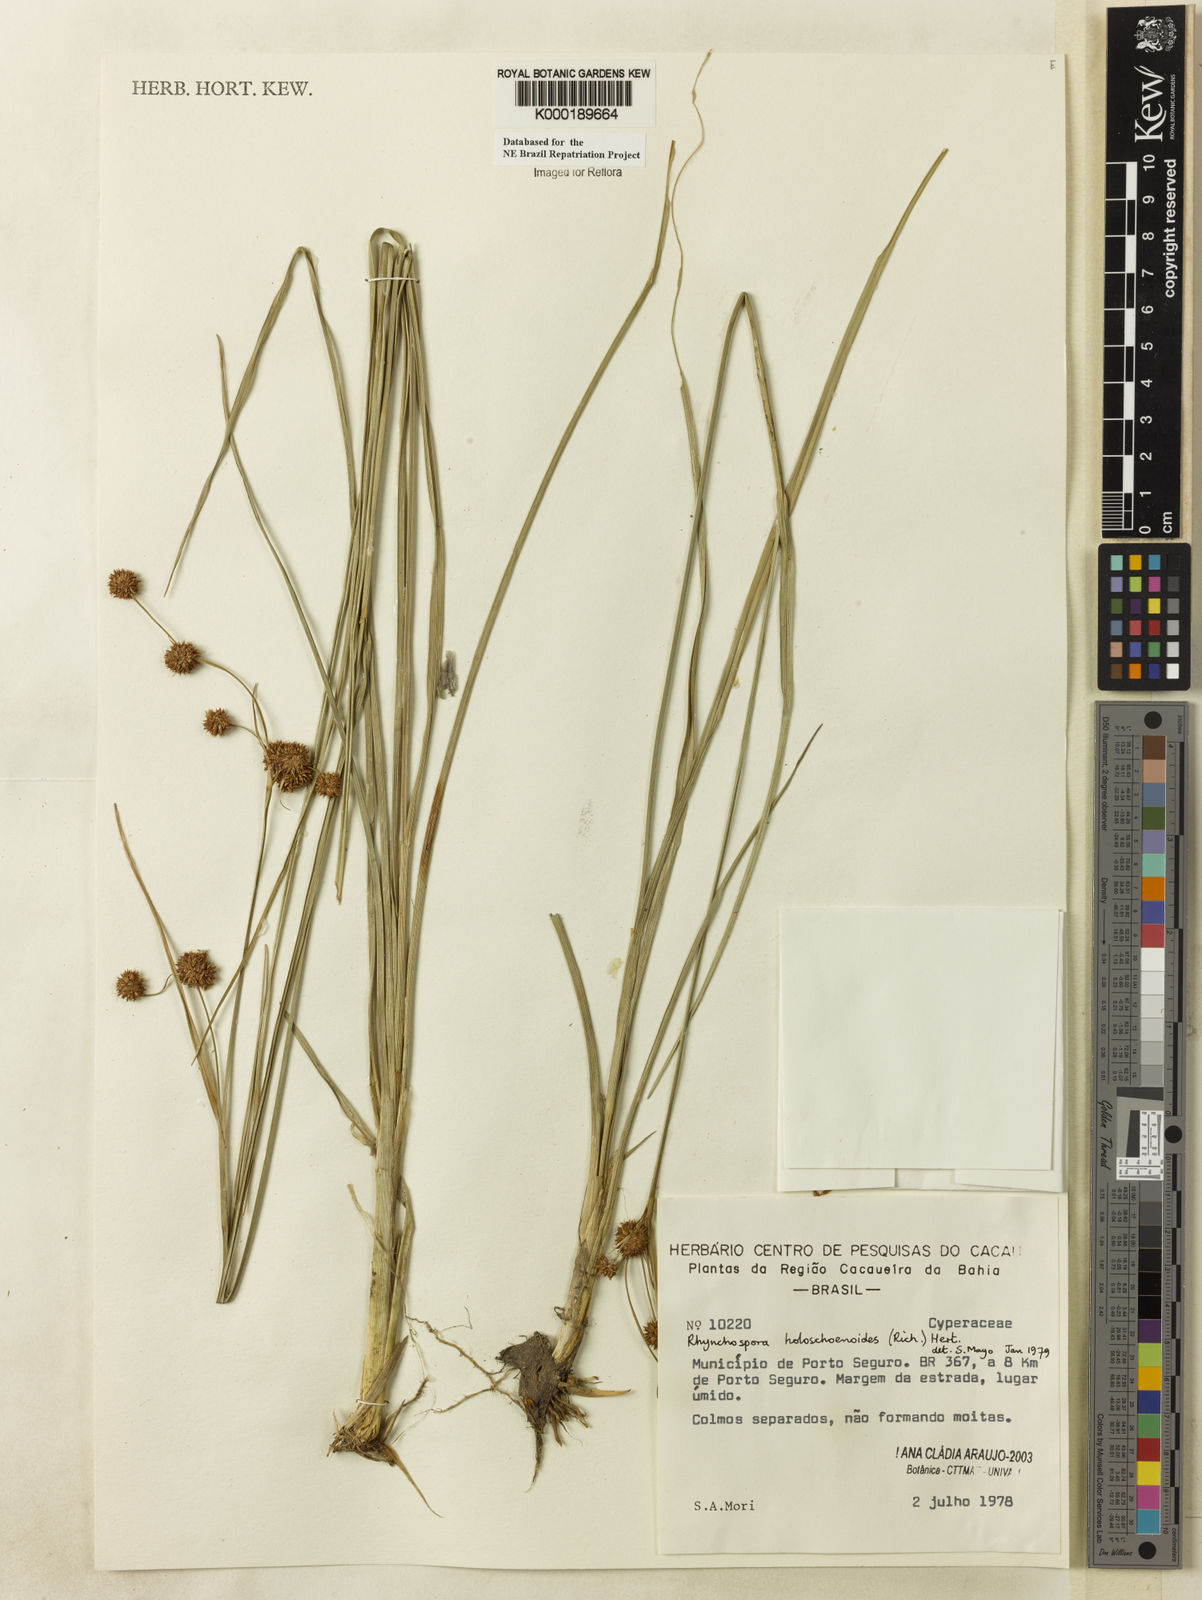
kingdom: Plantae
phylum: Tracheophyta
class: Liliopsida
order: Poales
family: Cyperaceae
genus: Rhynchospora
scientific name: Rhynchospora holoschoenoides
